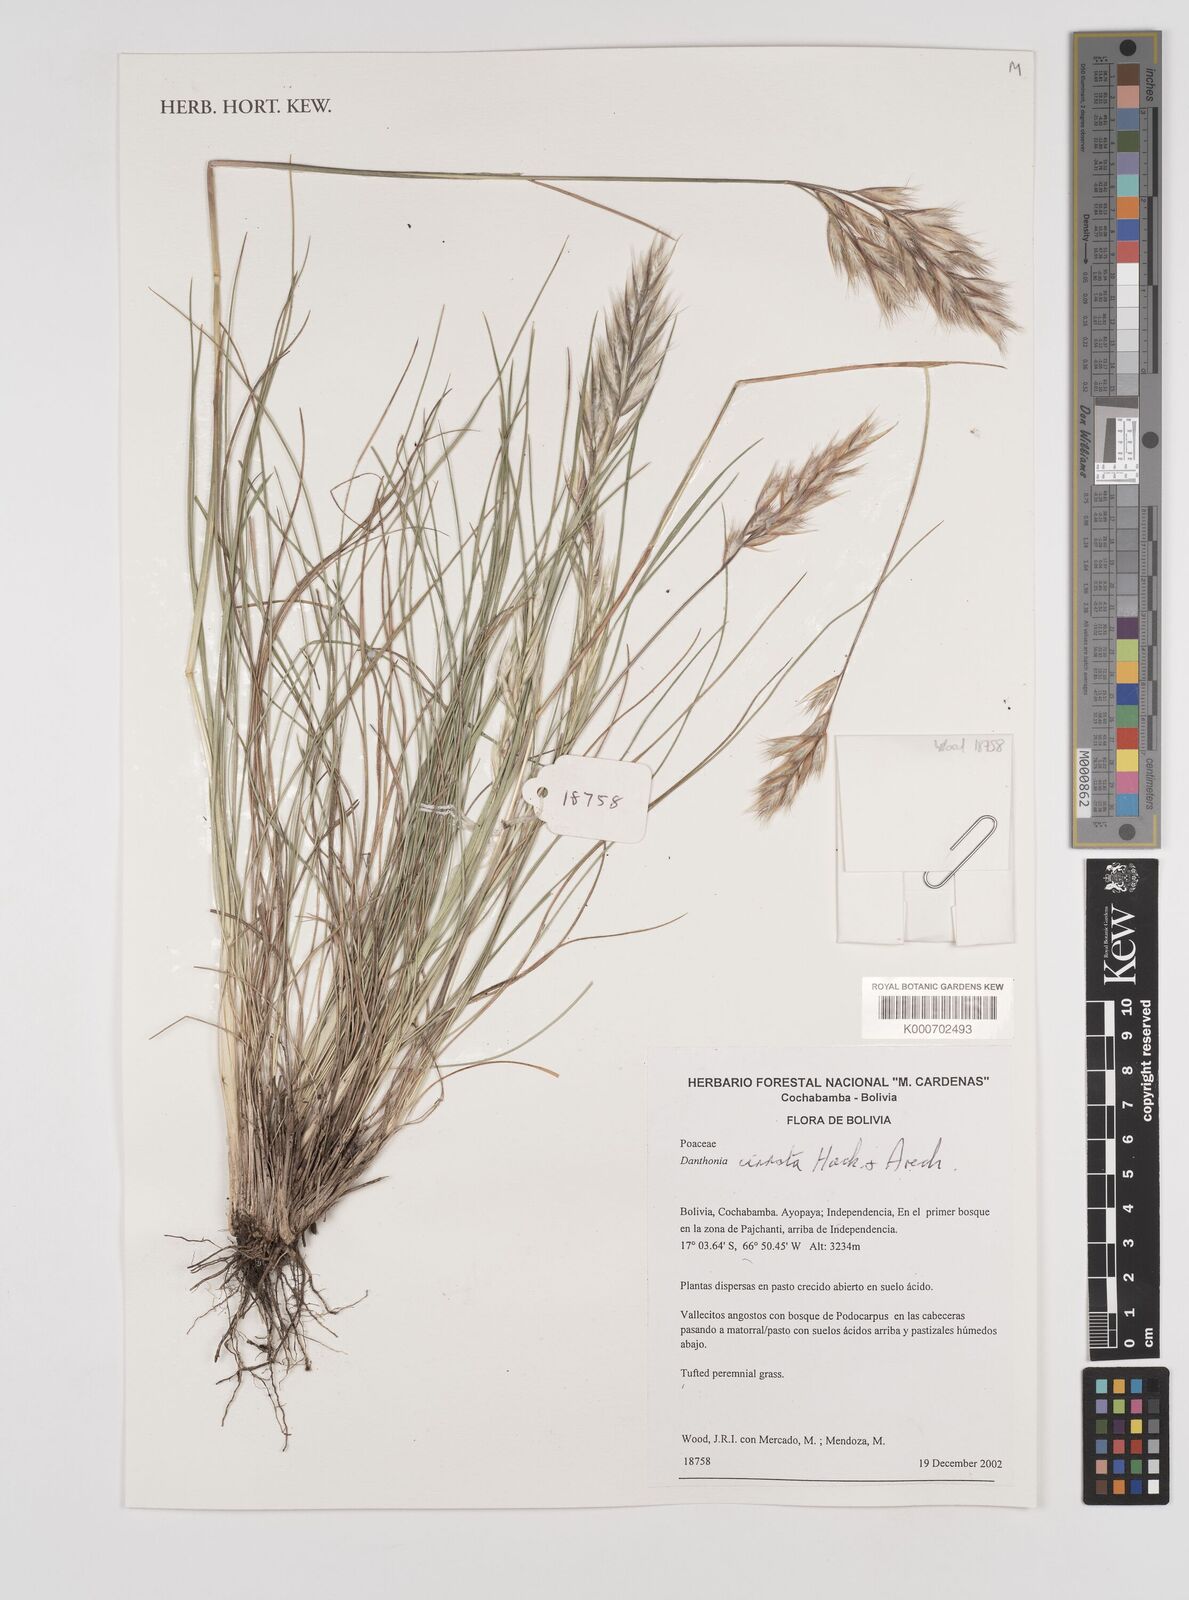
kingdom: Plantae
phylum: Tracheophyta
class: Liliopsida
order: Poales
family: Poaceae
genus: Danthonia
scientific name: Danthonia cirrata
